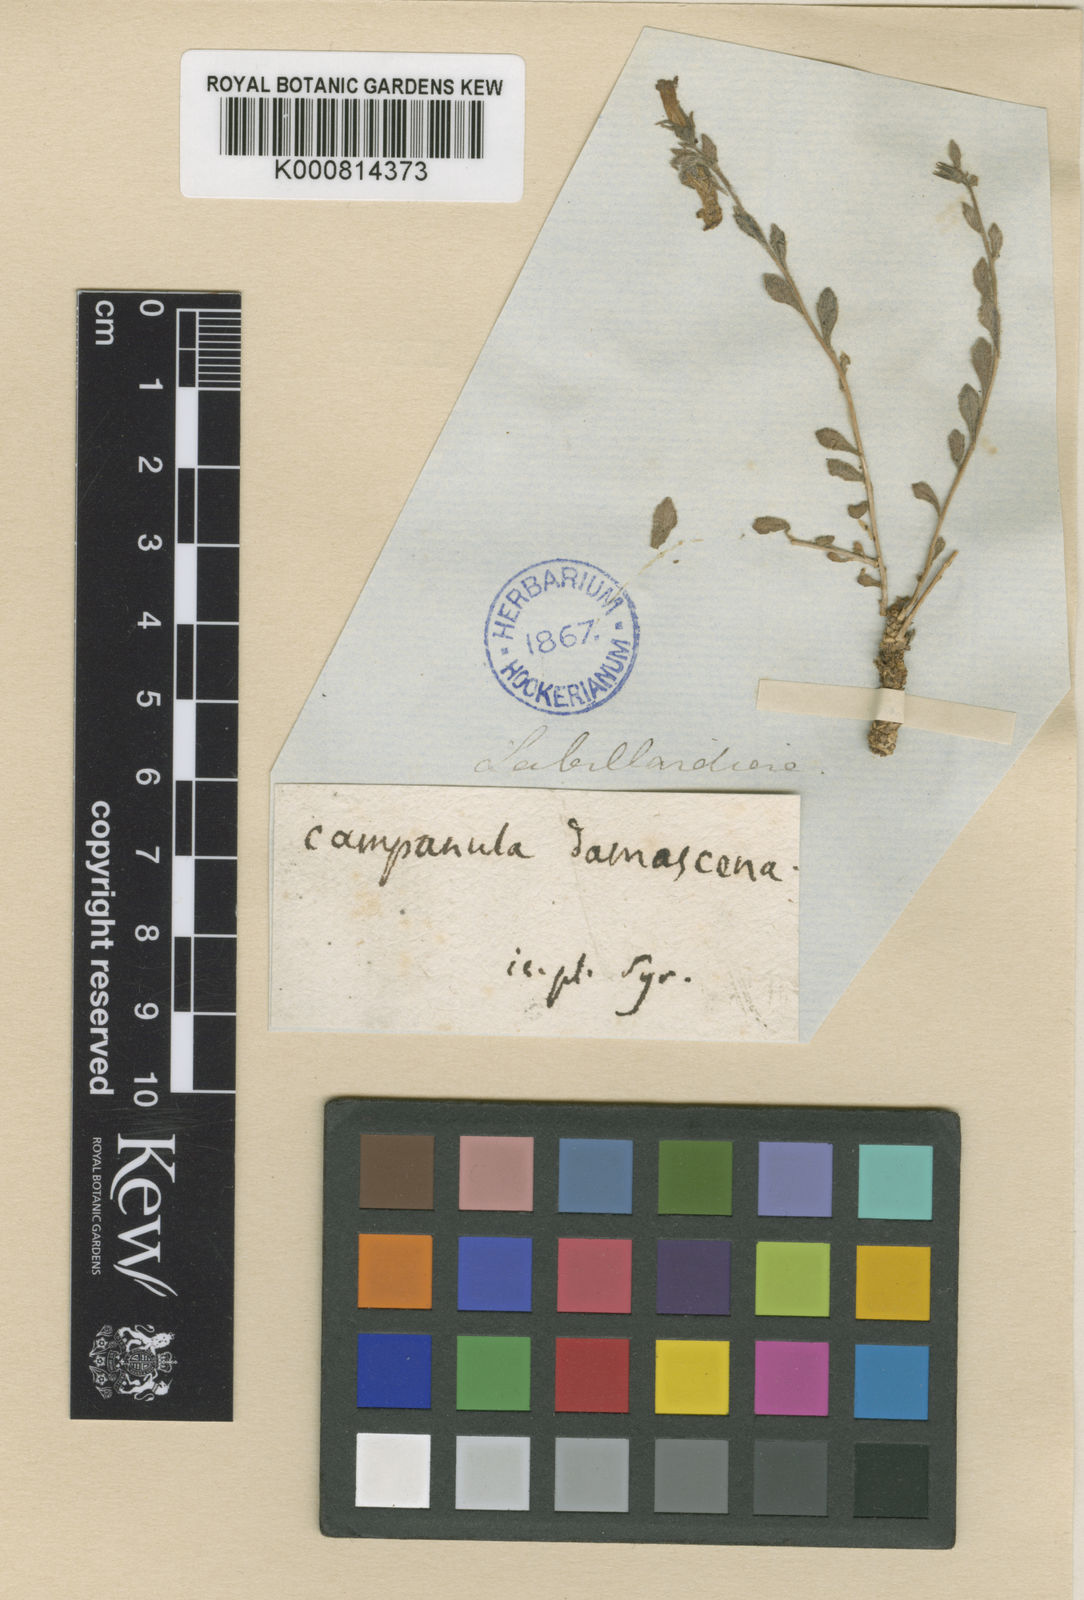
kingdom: Plantae
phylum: Tracheophyta
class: Magnoliopsida
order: Asterales
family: Campanulaceae
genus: Campanula
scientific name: Campanula damascena
